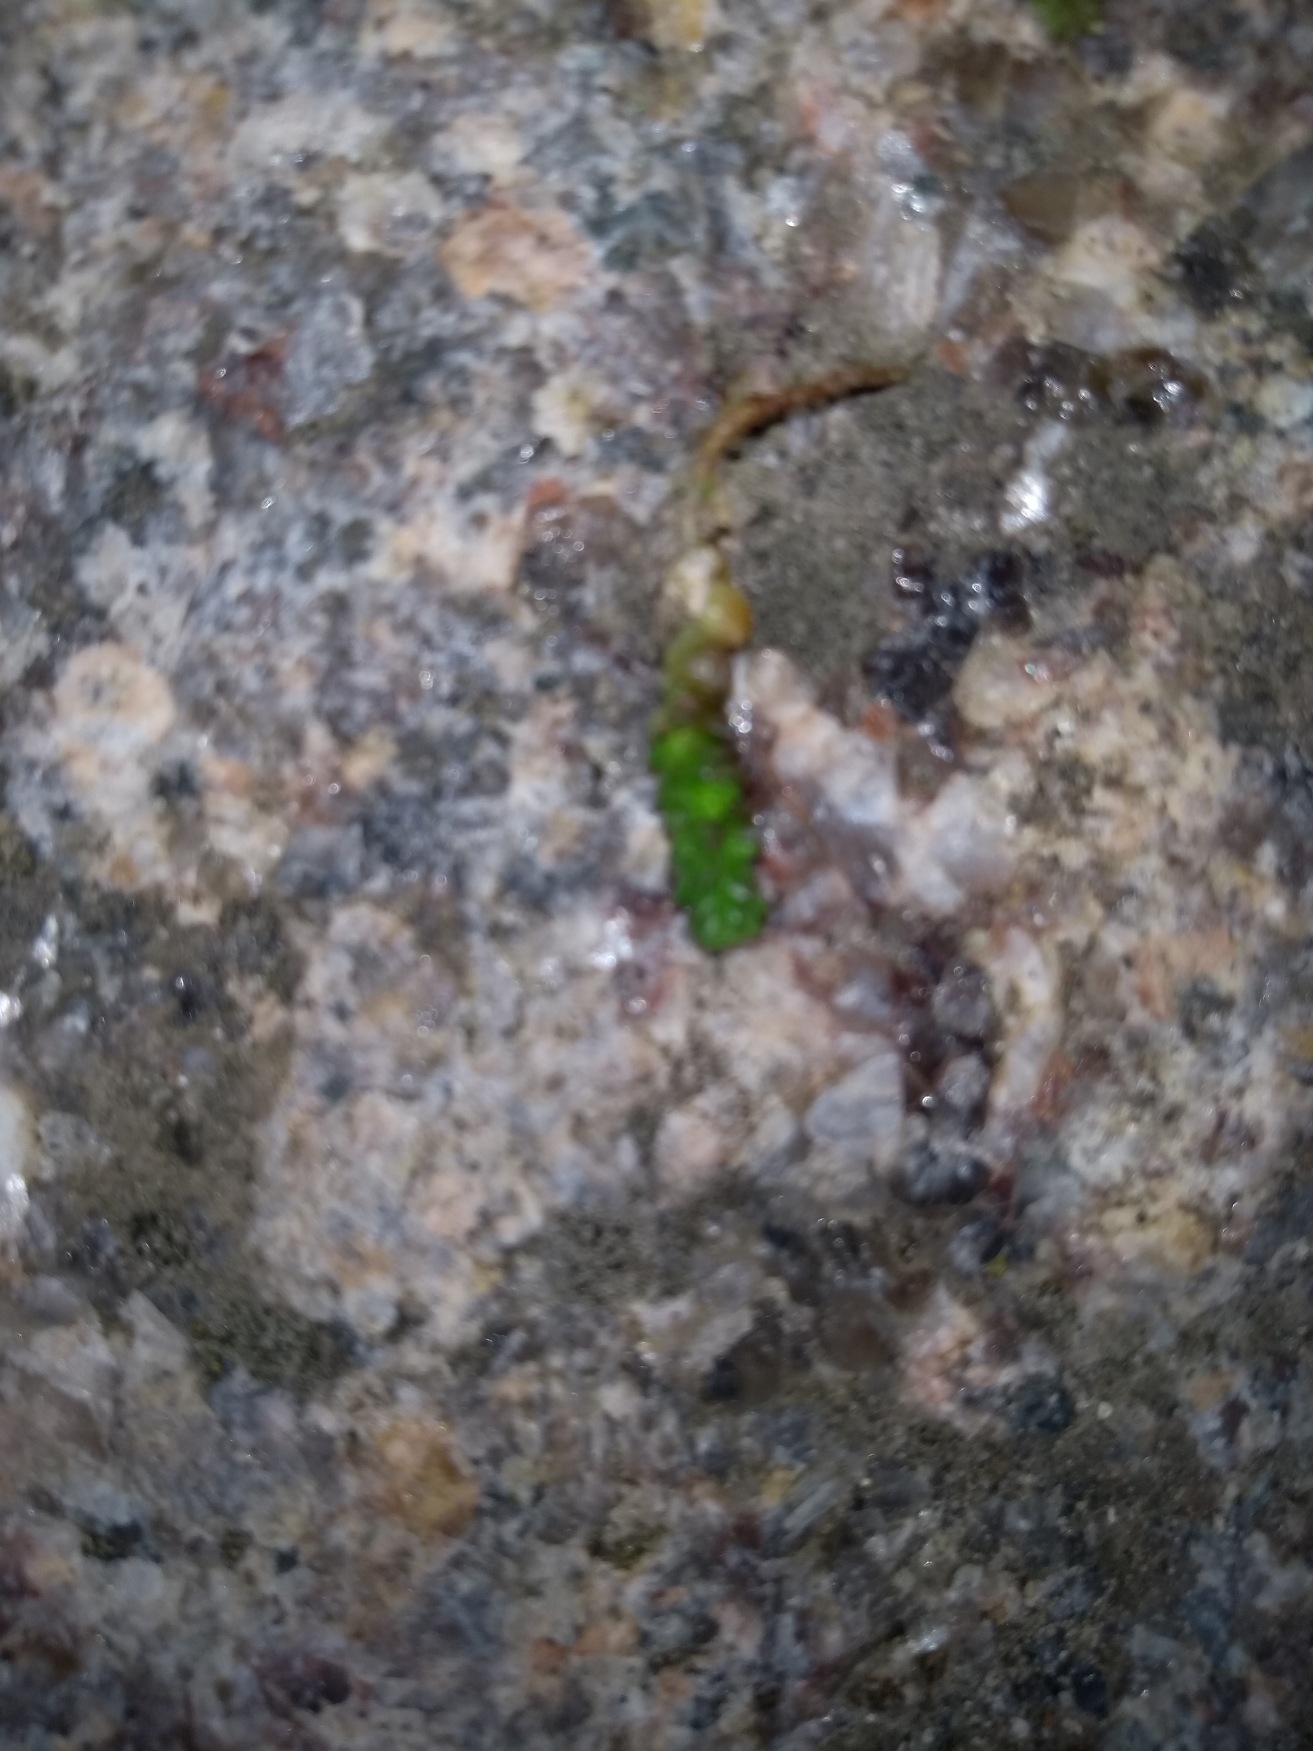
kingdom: Plantae
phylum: Tracheophyta
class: Magnoliopsida
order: Saxifragales
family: Crassulaceae
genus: Sedum
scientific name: Sedum acre
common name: Bidende stenurt
